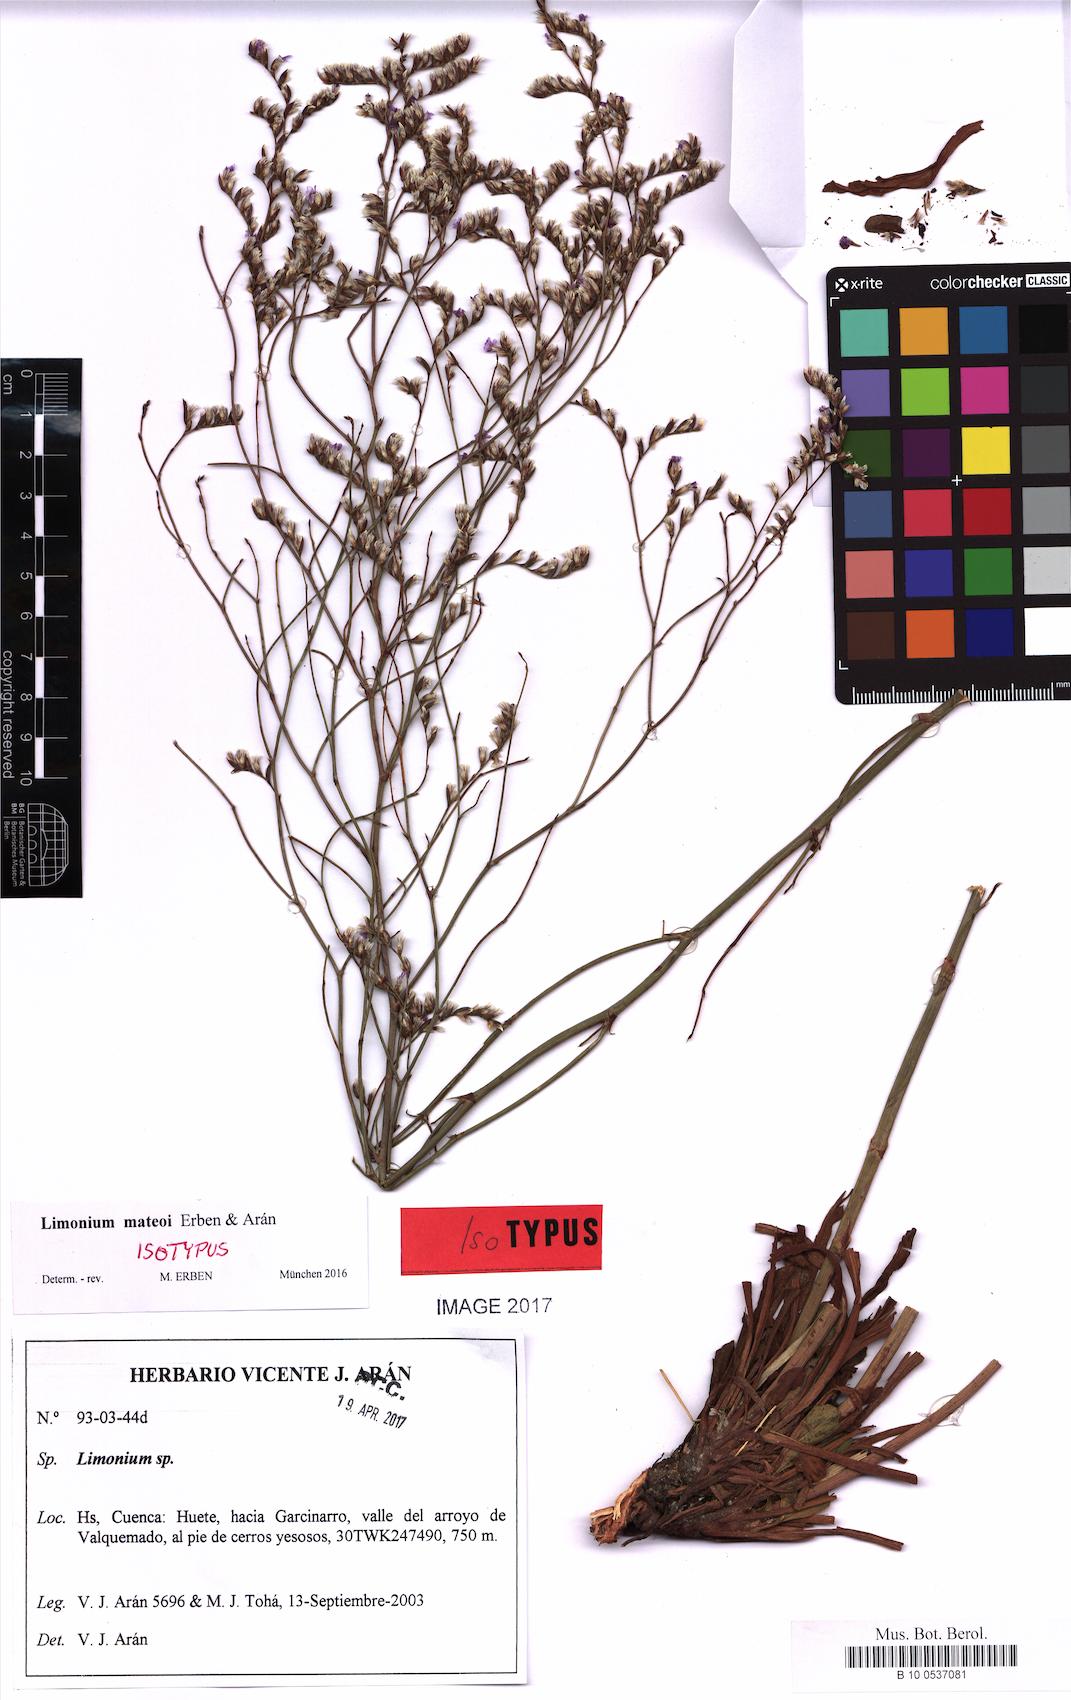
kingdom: Plantae
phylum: Tracheophyta
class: Magnoliopsida
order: Caryophyllales
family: Plumbaginaceae
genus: Limonium
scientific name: Limonium mateoi
